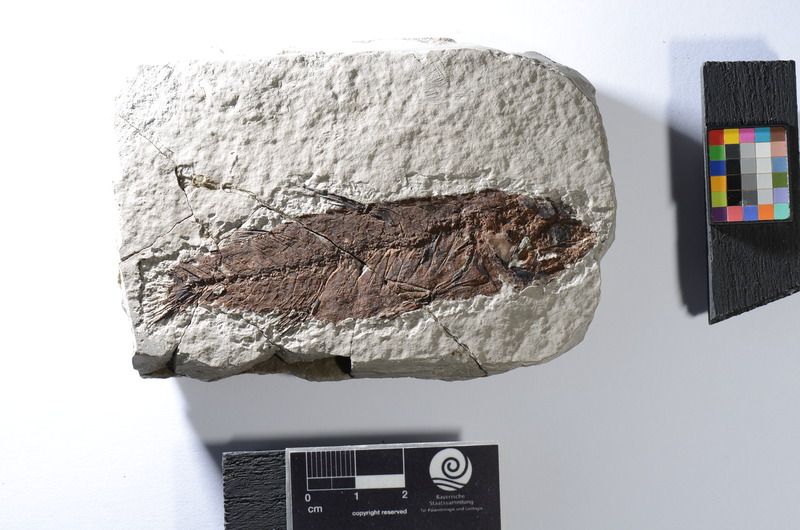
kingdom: Animalia
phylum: Chordata
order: Mugiliformes
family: Mugilidae
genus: Mugil
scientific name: Mugil princeps
